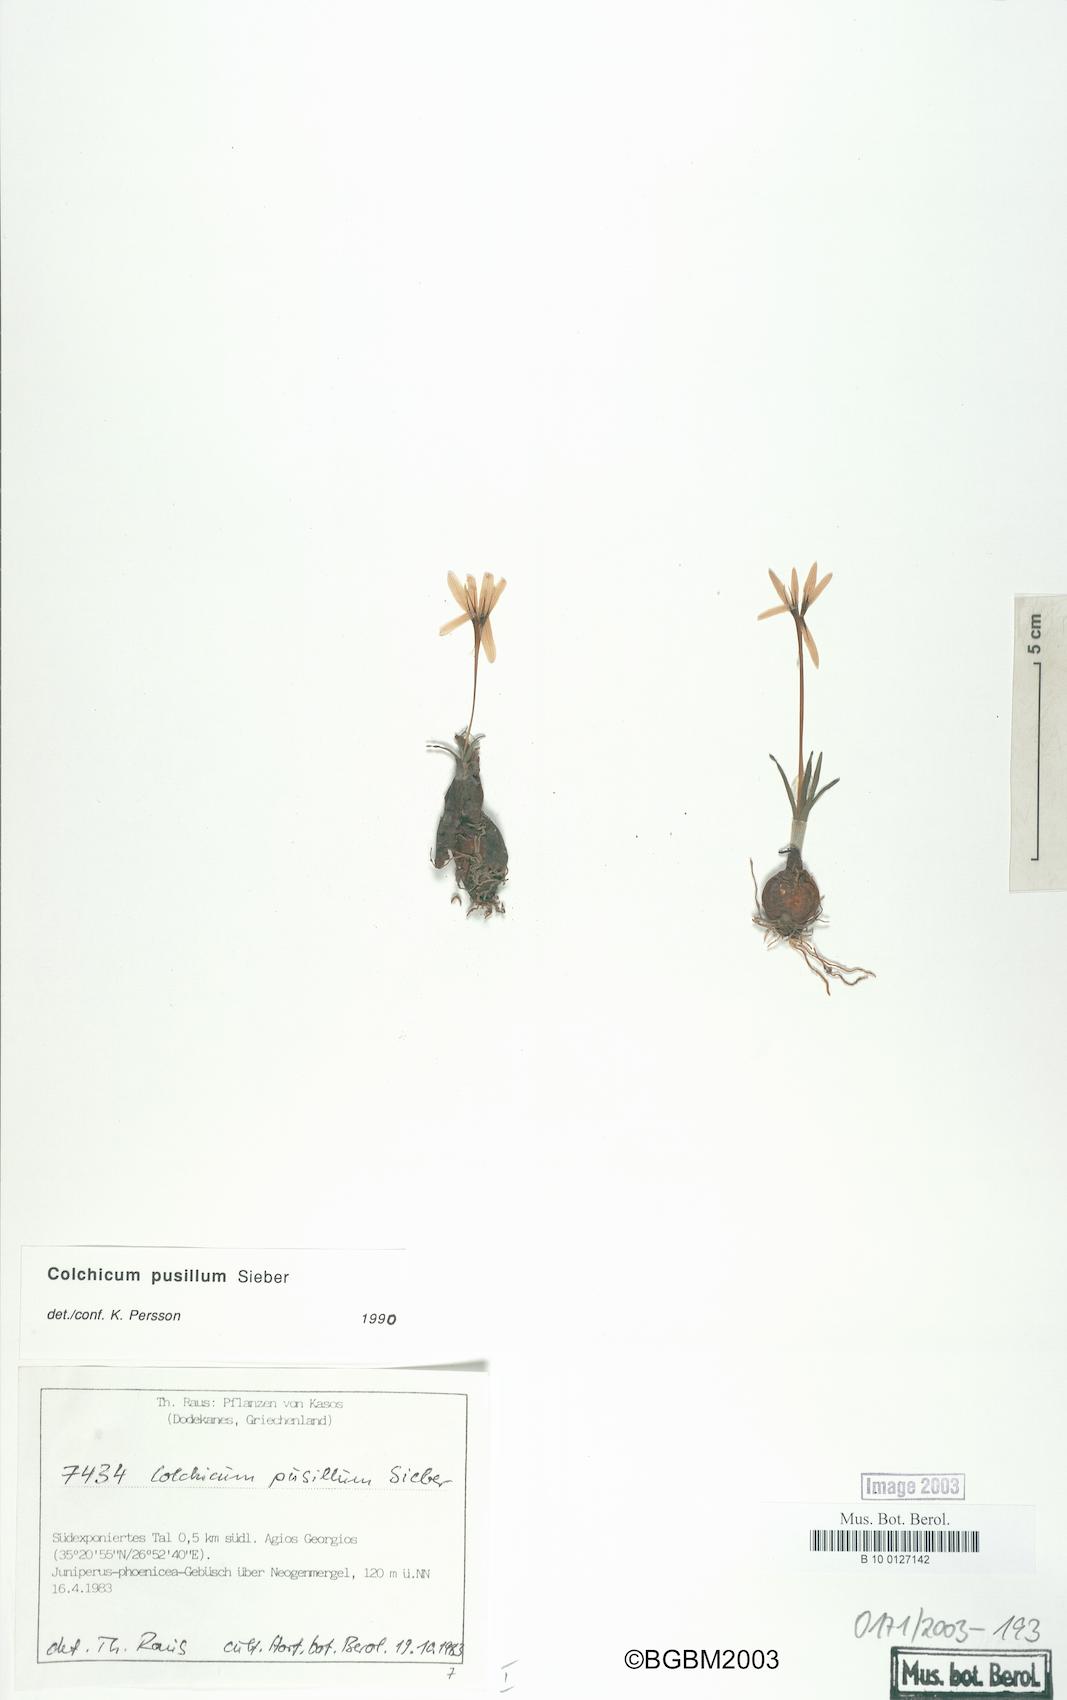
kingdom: Plantae
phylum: Tracheophyta
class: Liliopsida
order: Liliales
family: Colchicaceae
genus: Colchicum
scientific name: Colchicum pusillum
